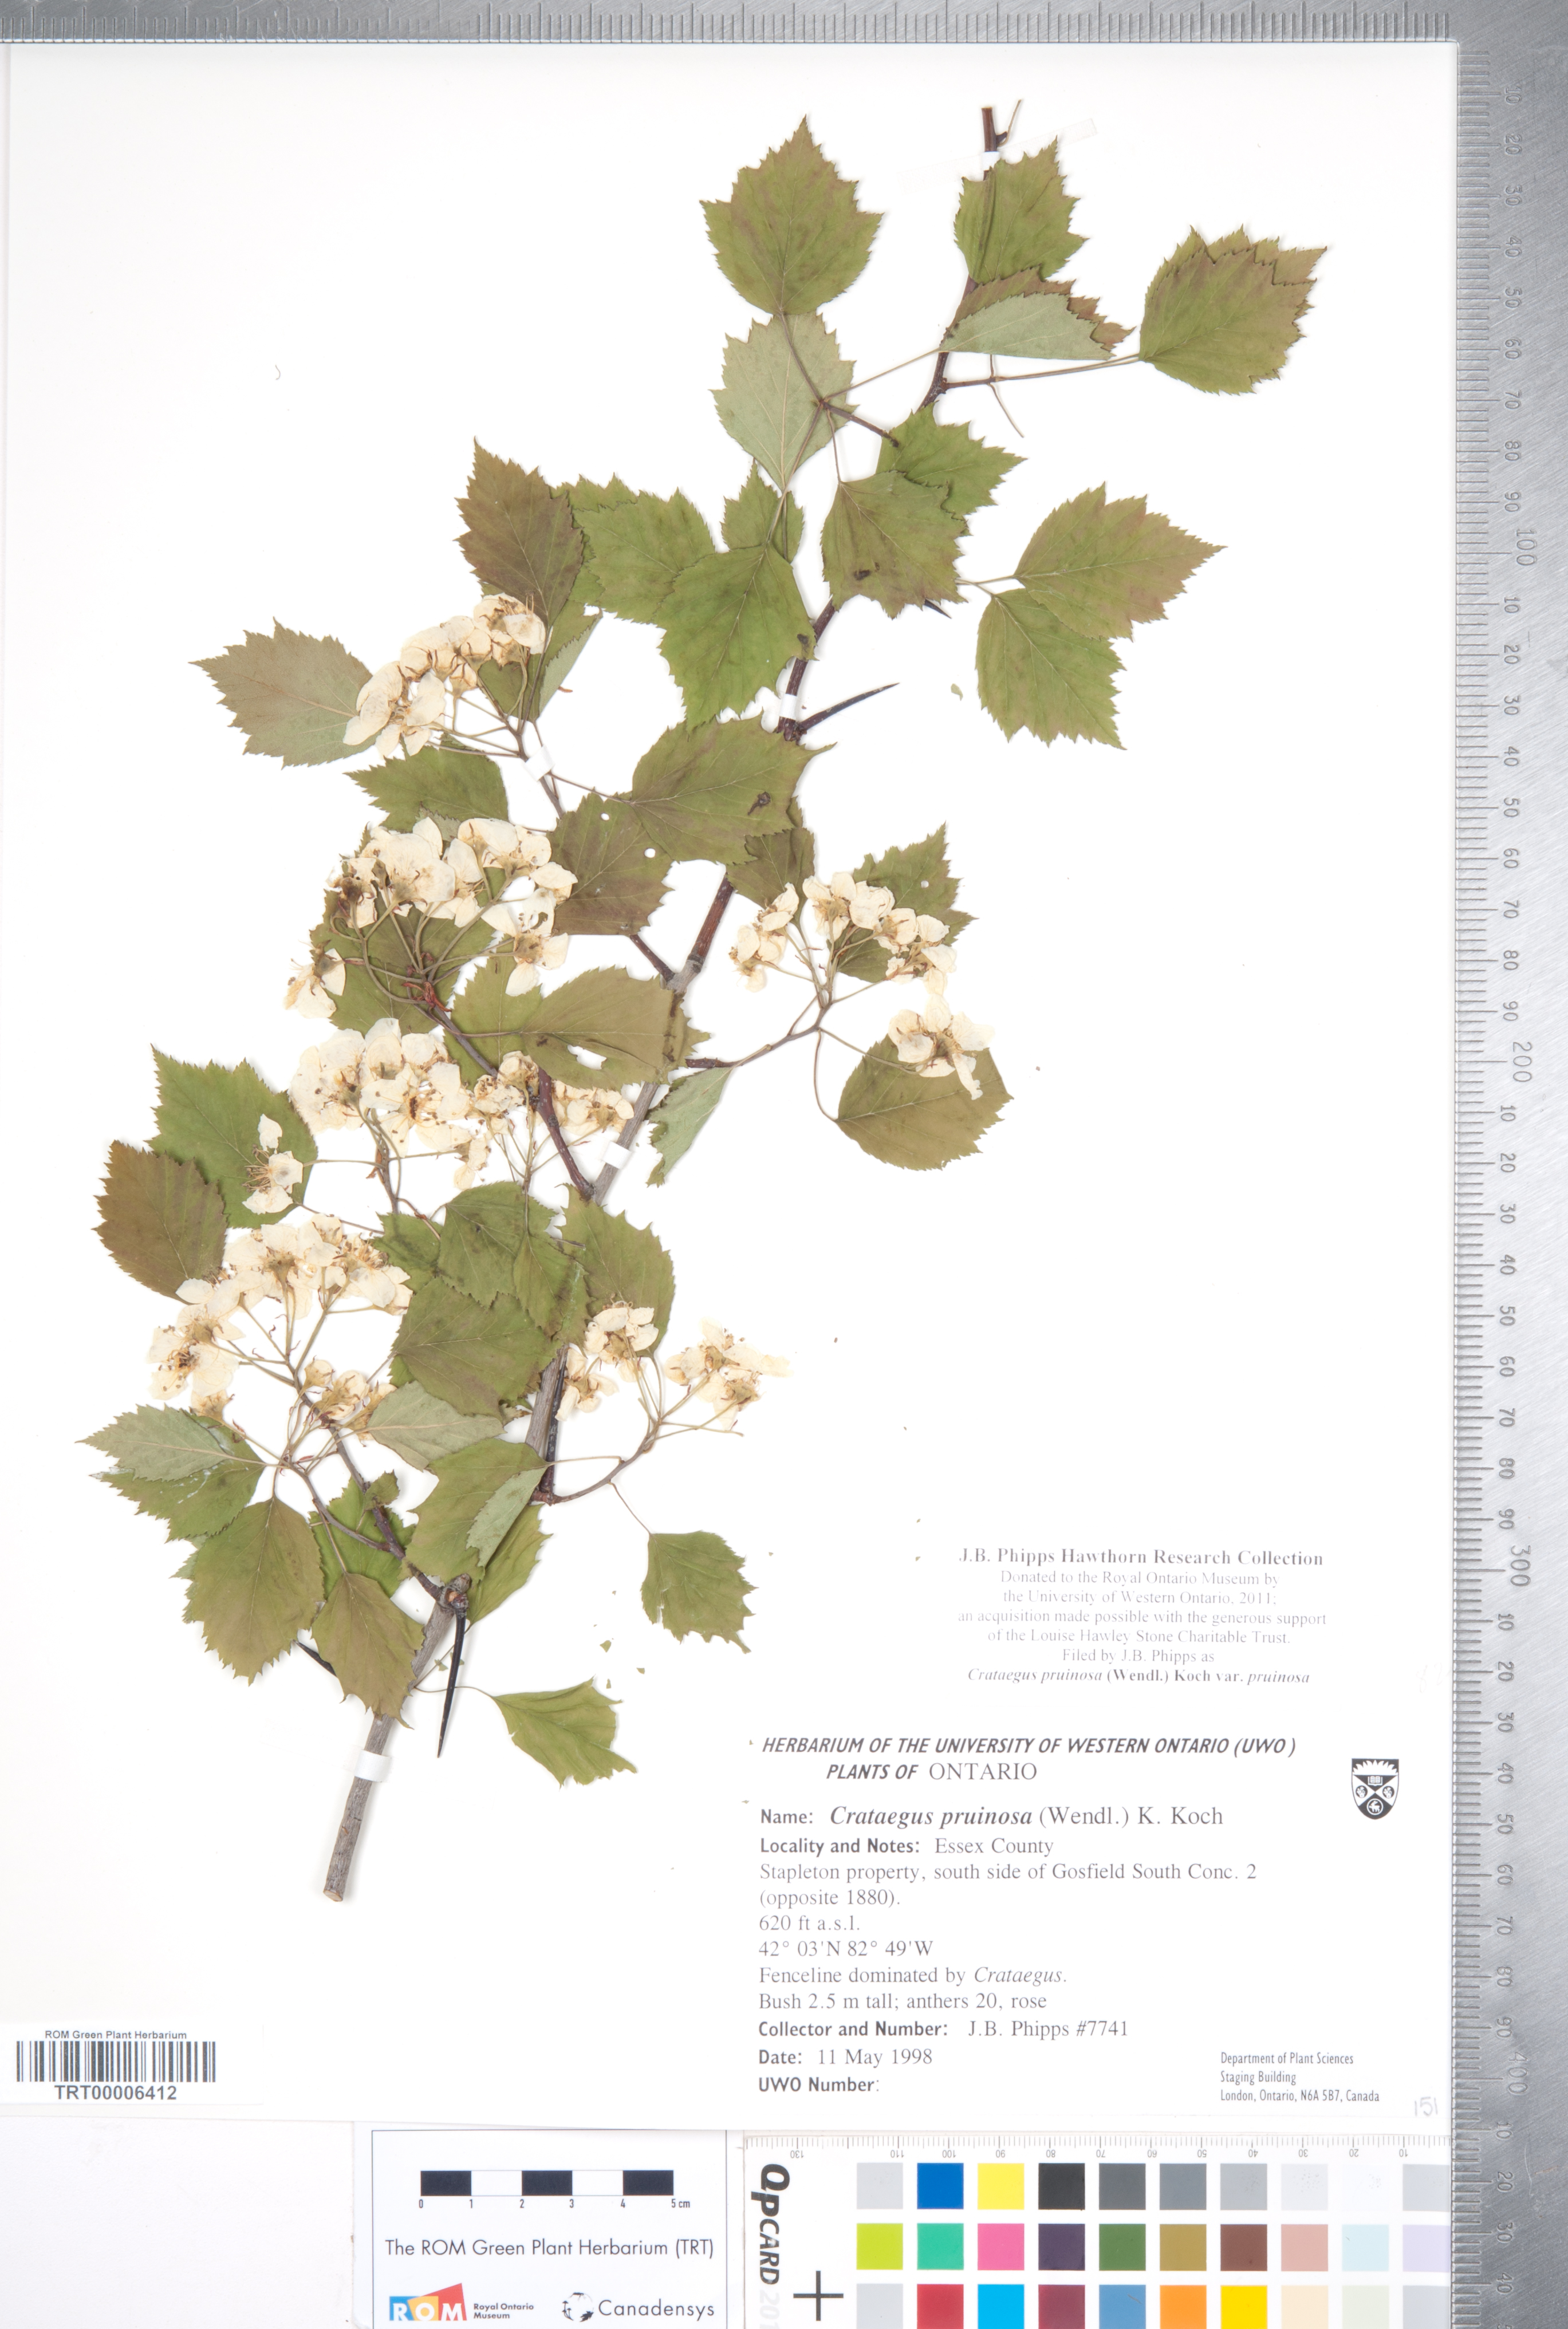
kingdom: Plantae
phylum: Tracheophyta
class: Magnoliopsida
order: Rosales
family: Rosaceae
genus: Crataegus
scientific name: Crataegus pruinosa
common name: Waxy-fruit hawthorn
